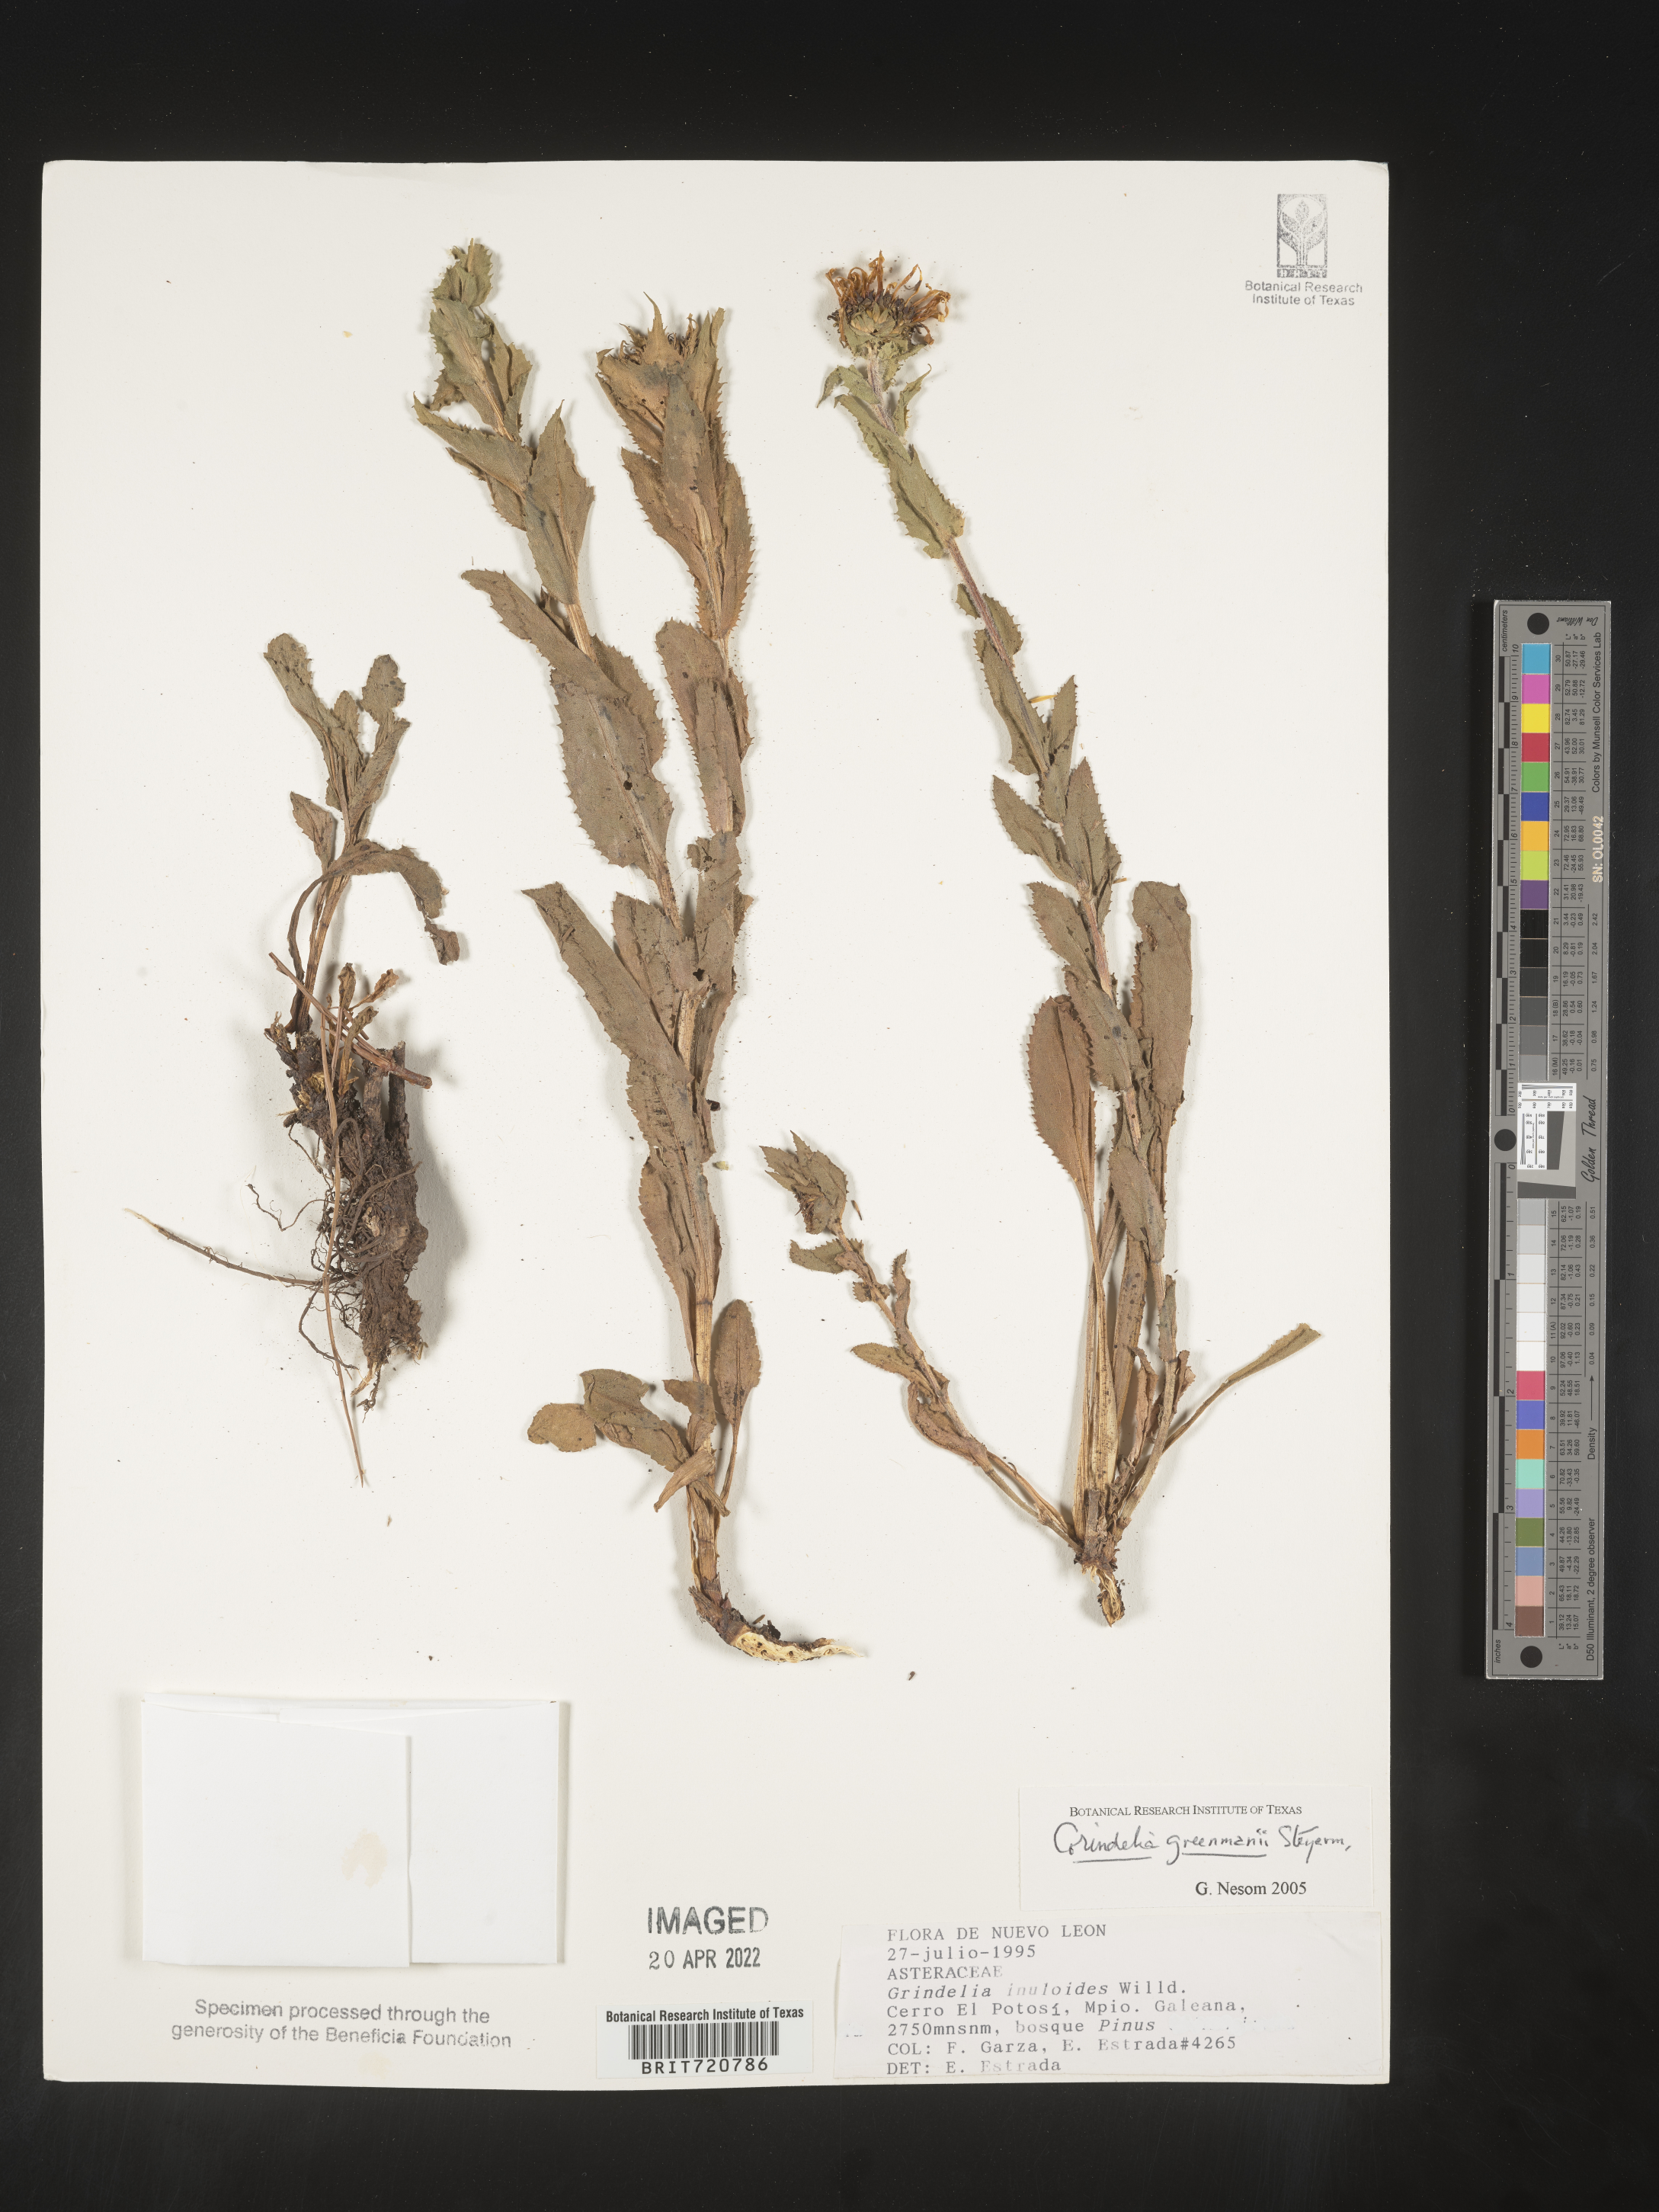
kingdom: Plantae
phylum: Tracheophyta
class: Magnoliopsida
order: Asterales
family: Asteraceae
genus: Grindelia
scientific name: Grindelia
